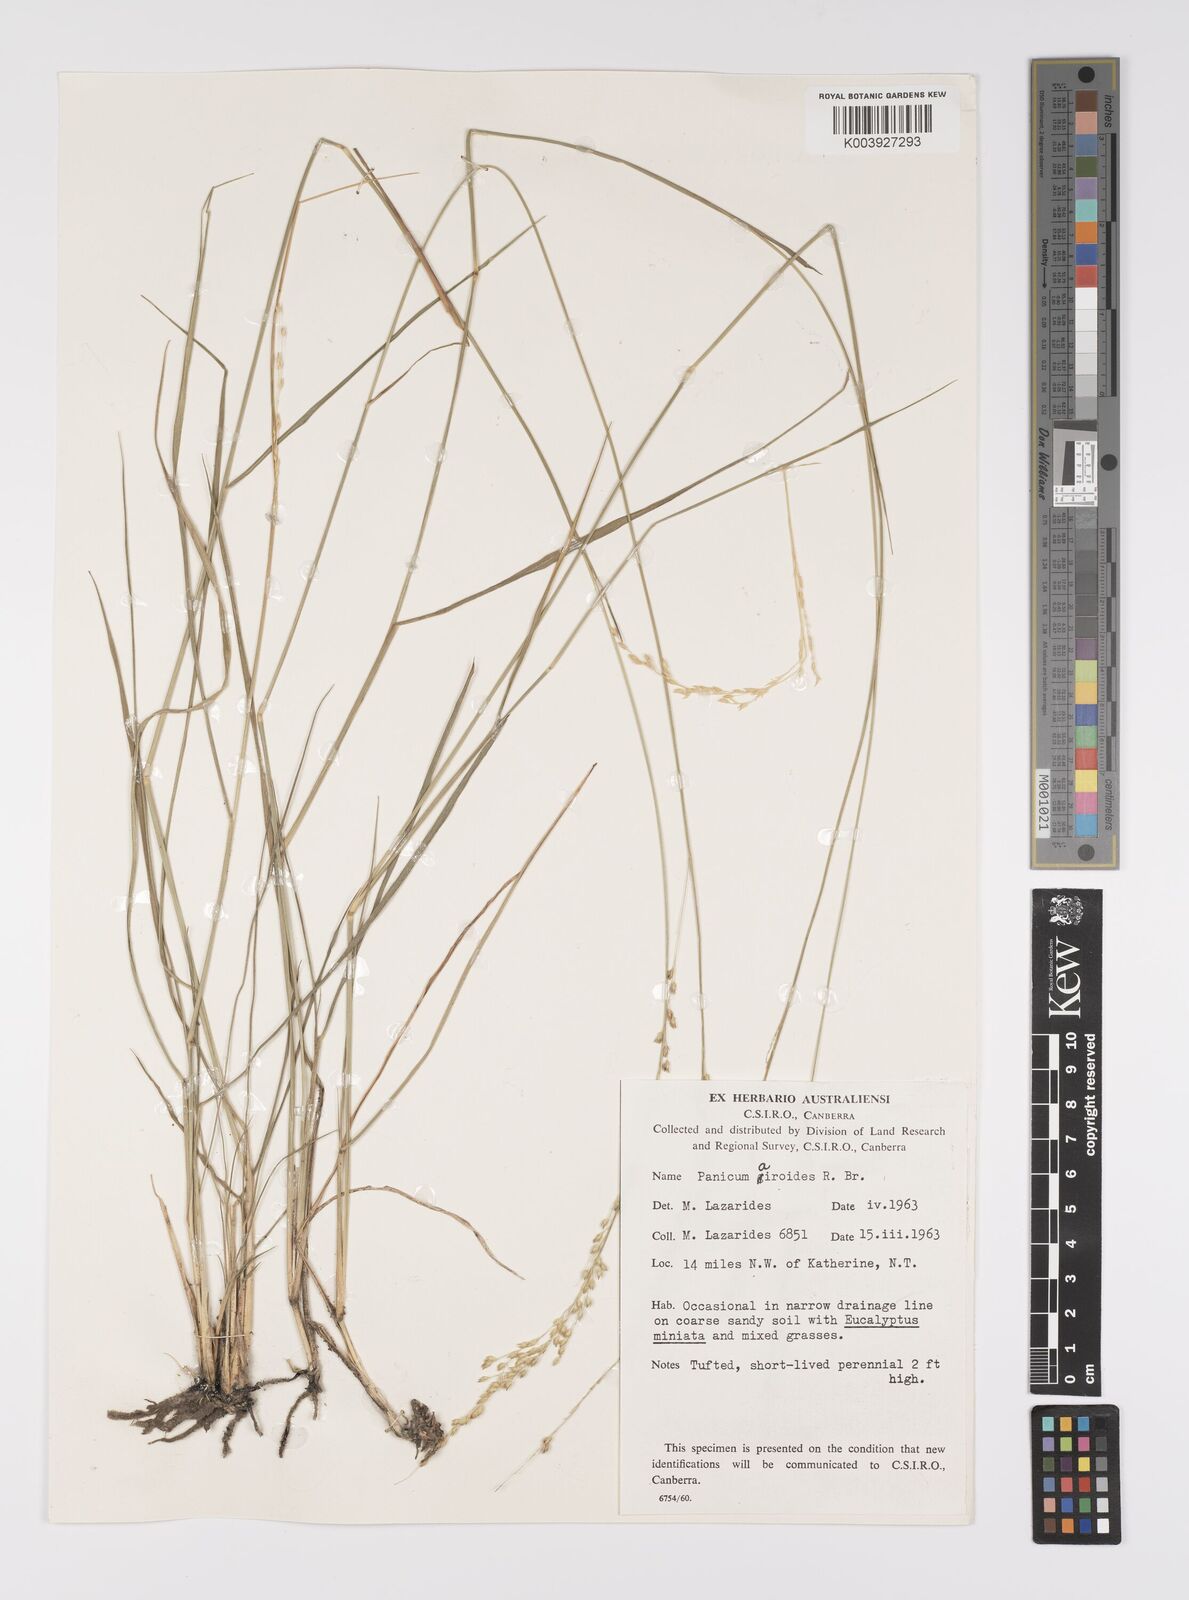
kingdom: Plantae
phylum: Tracheophyta
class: Liliopsida
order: Poales
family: Poaceae
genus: Whiteochloa
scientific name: Whiteochloa airoides
